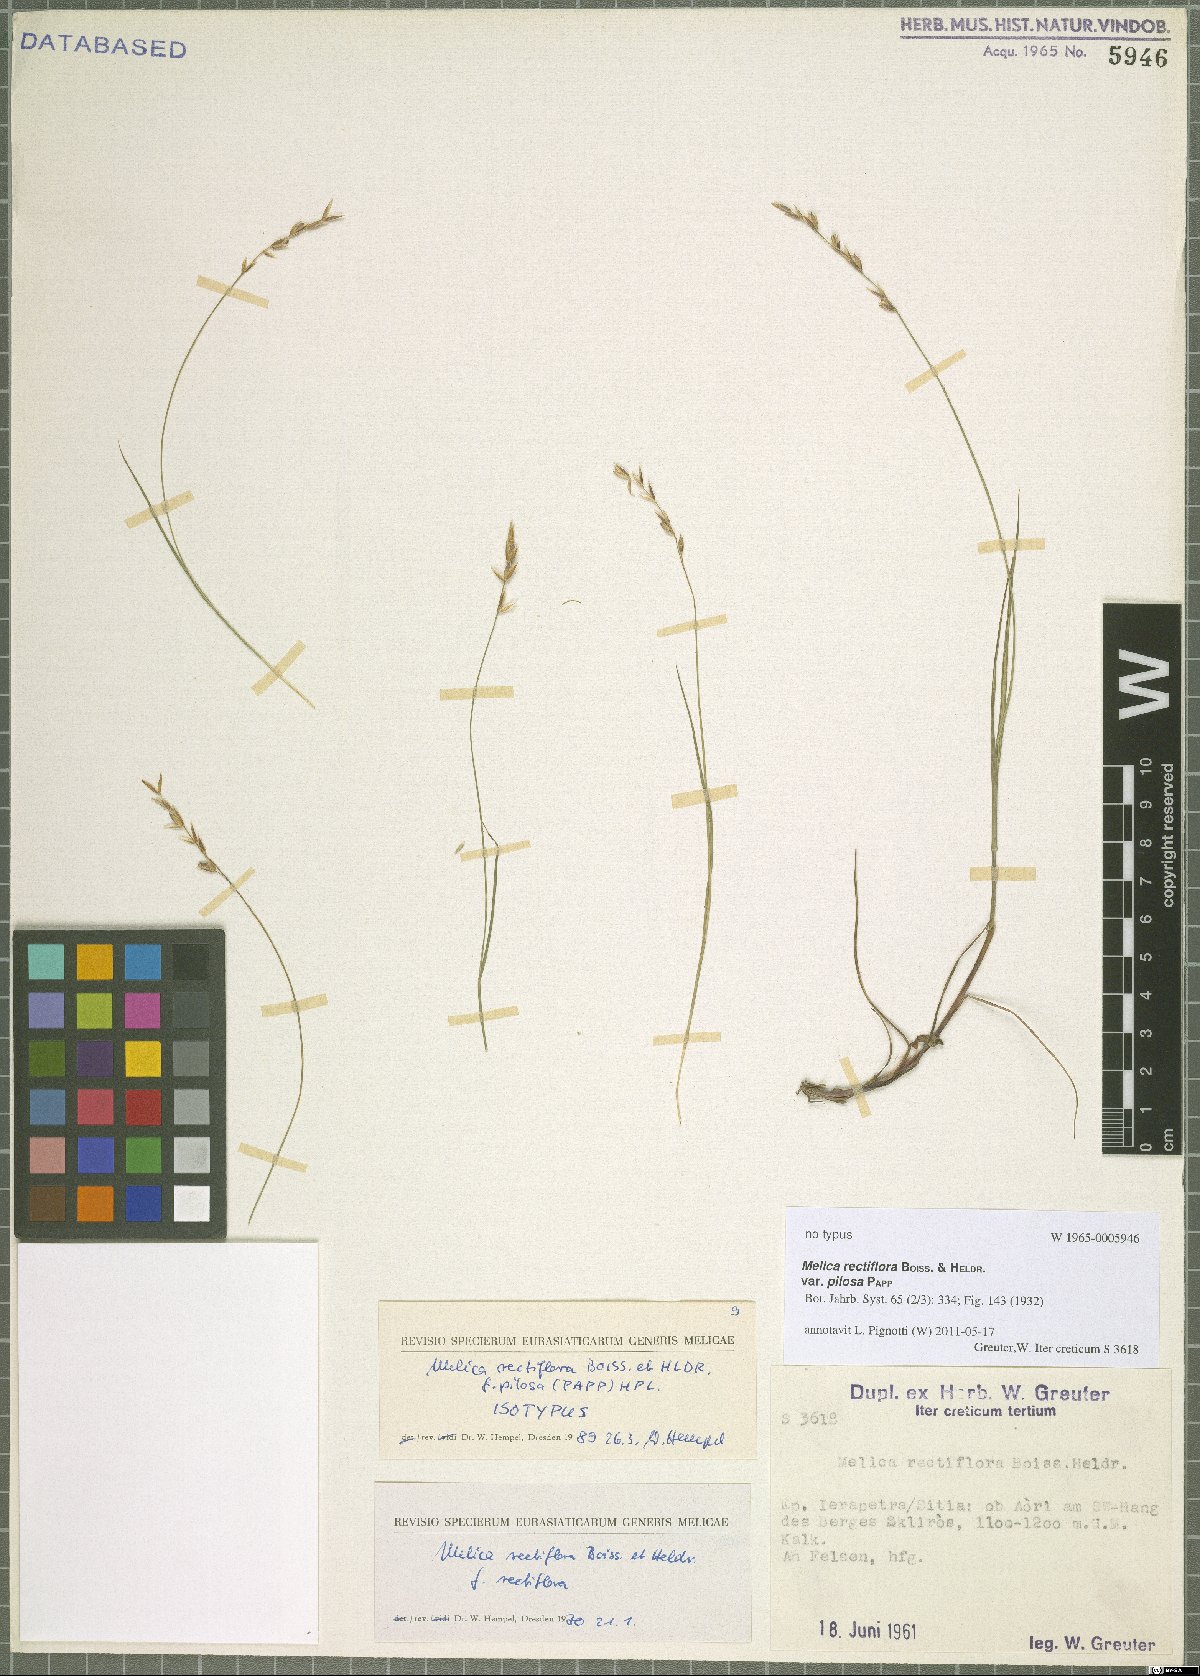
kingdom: Plantae
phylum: Tracheophyta
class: Liliopsida
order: Poales
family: Poaceae
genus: Melica
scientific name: Melica rectiflora
